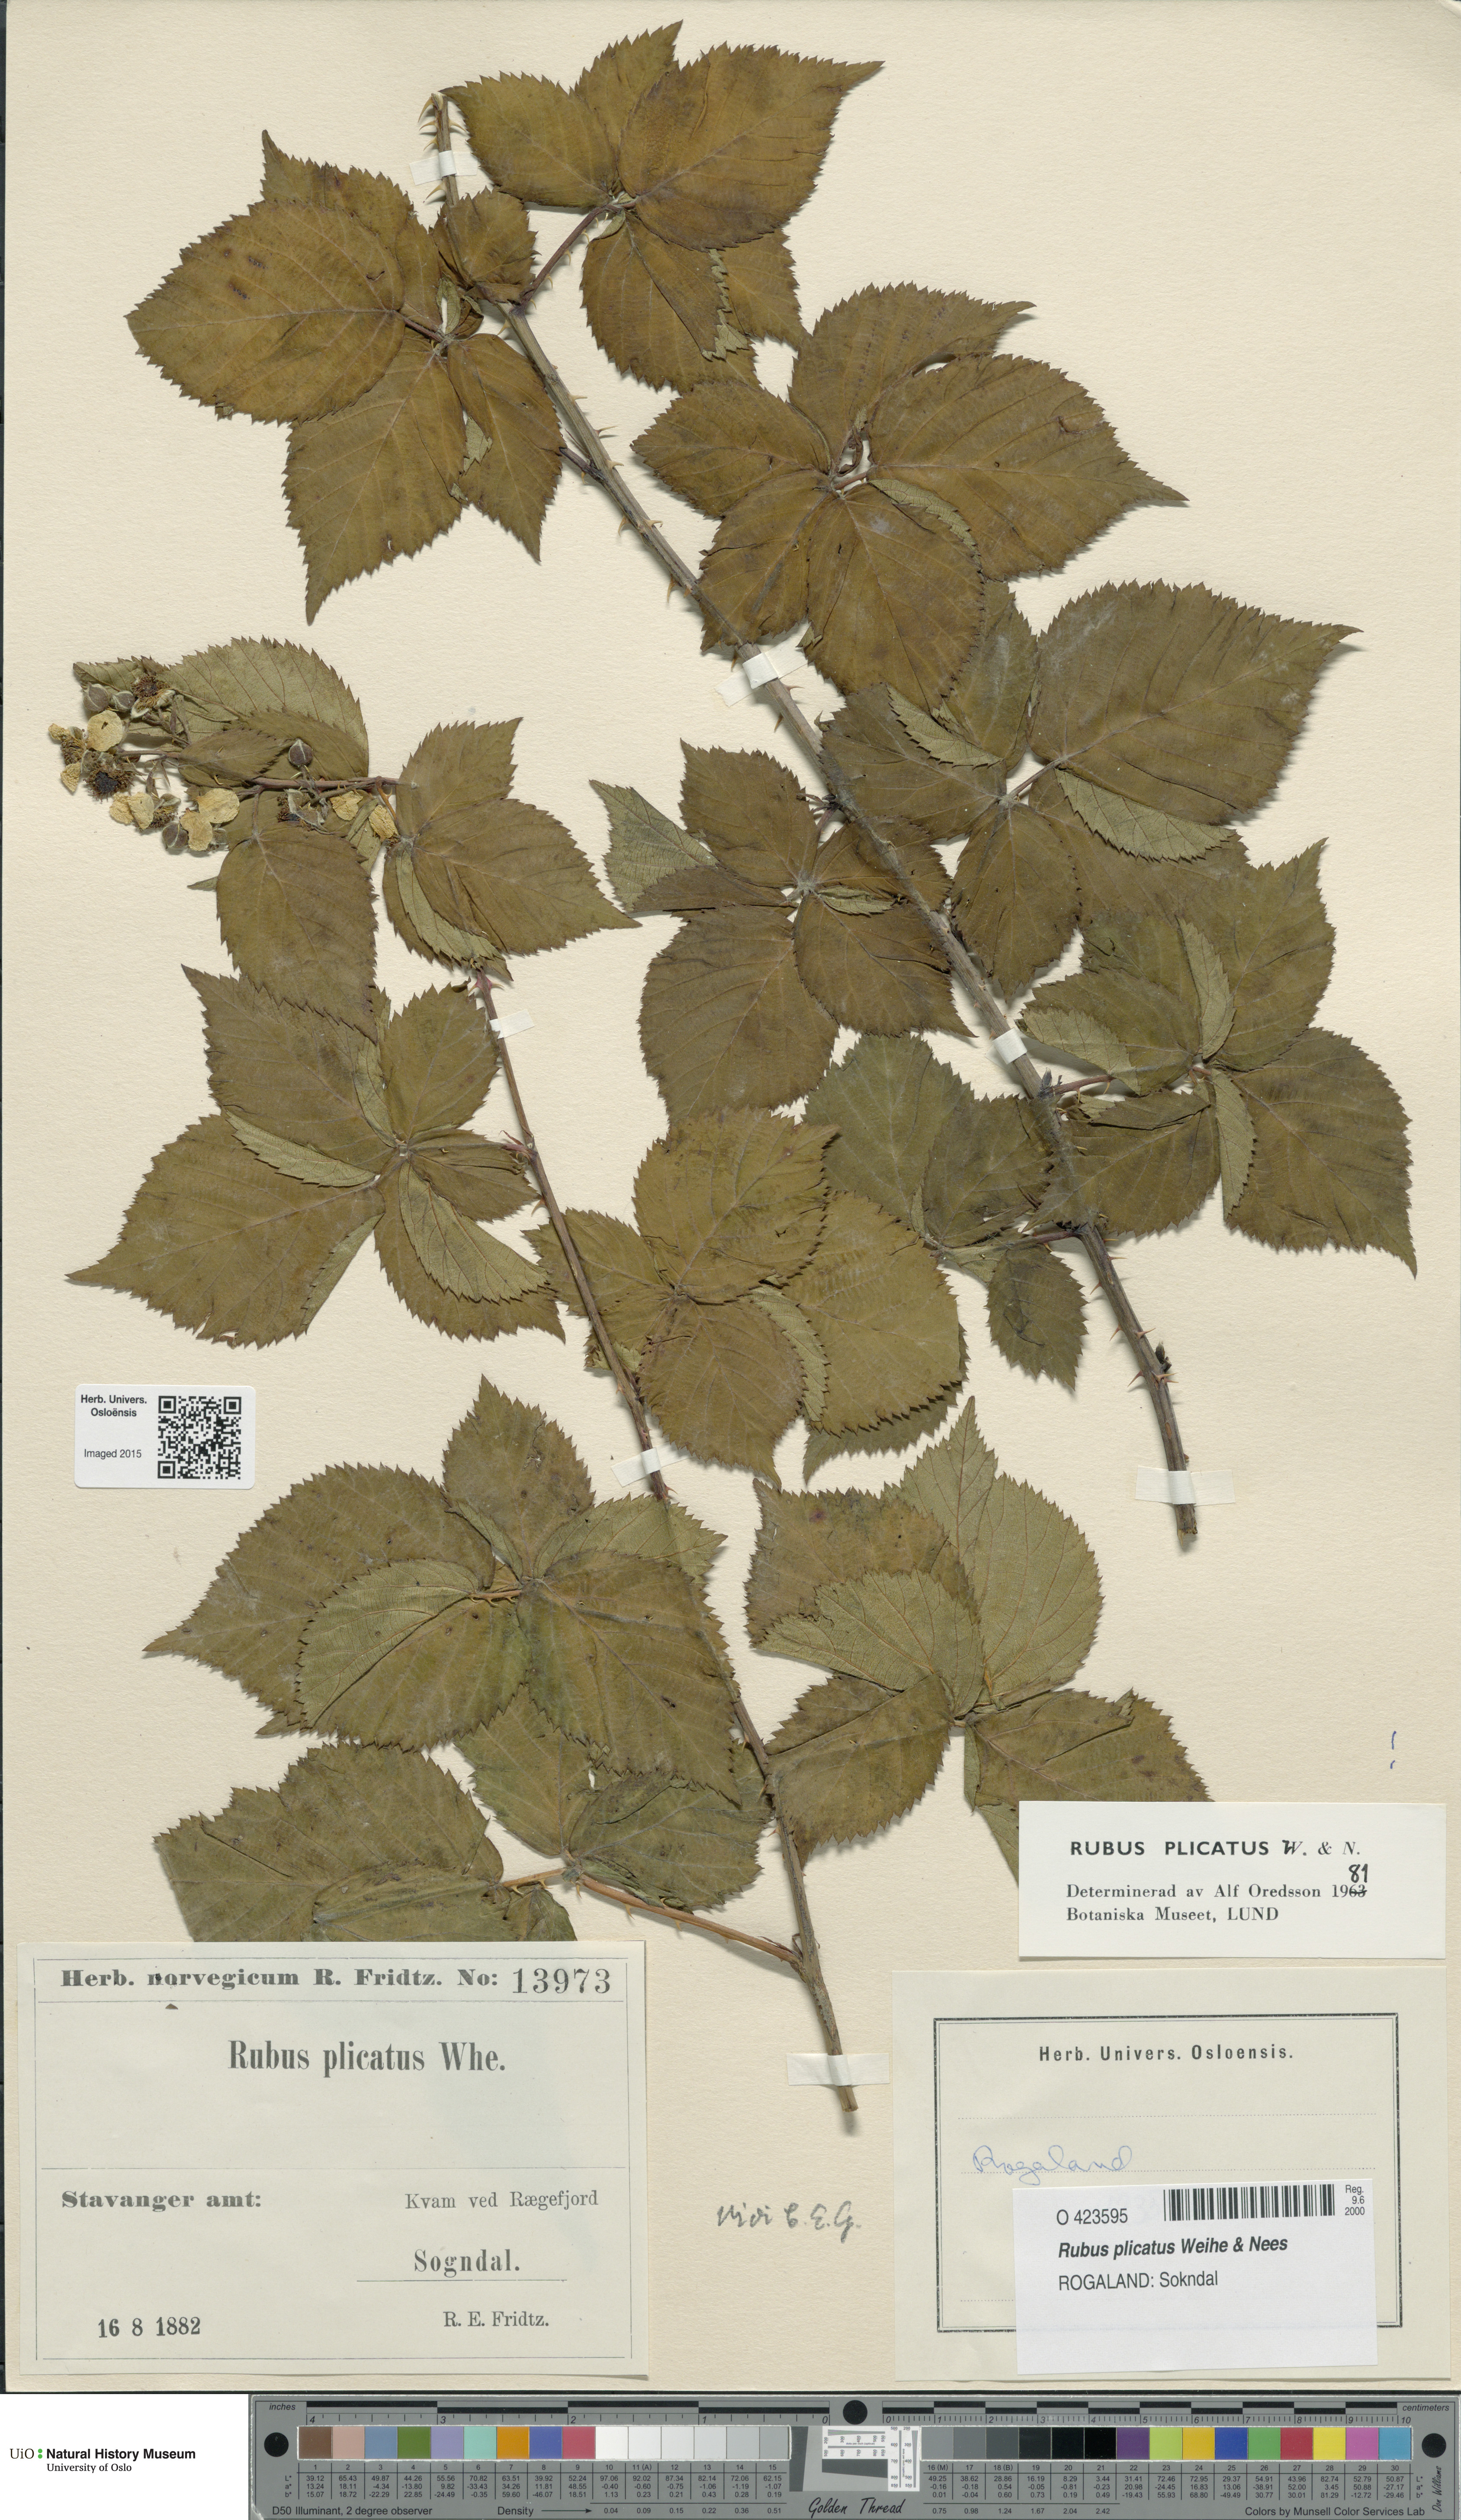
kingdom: Plantae
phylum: Tracheophyta
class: Magnoliopsida
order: Rosales
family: Rosaceae
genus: Rubus
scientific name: Rubus fruticosus
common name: Blackberry, bramble
